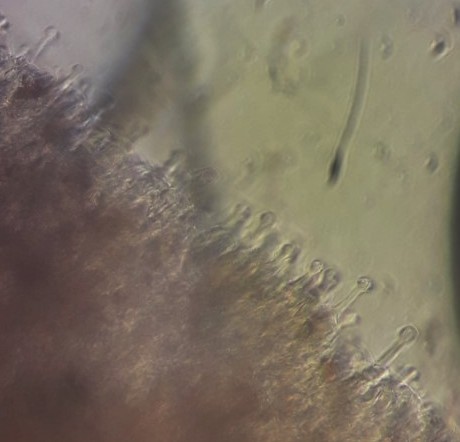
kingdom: Fungi
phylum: Basidiomycota
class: Agaricomycetes
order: Agaricales
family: Hymenogastraceae
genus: Galerina
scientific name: Galerina
